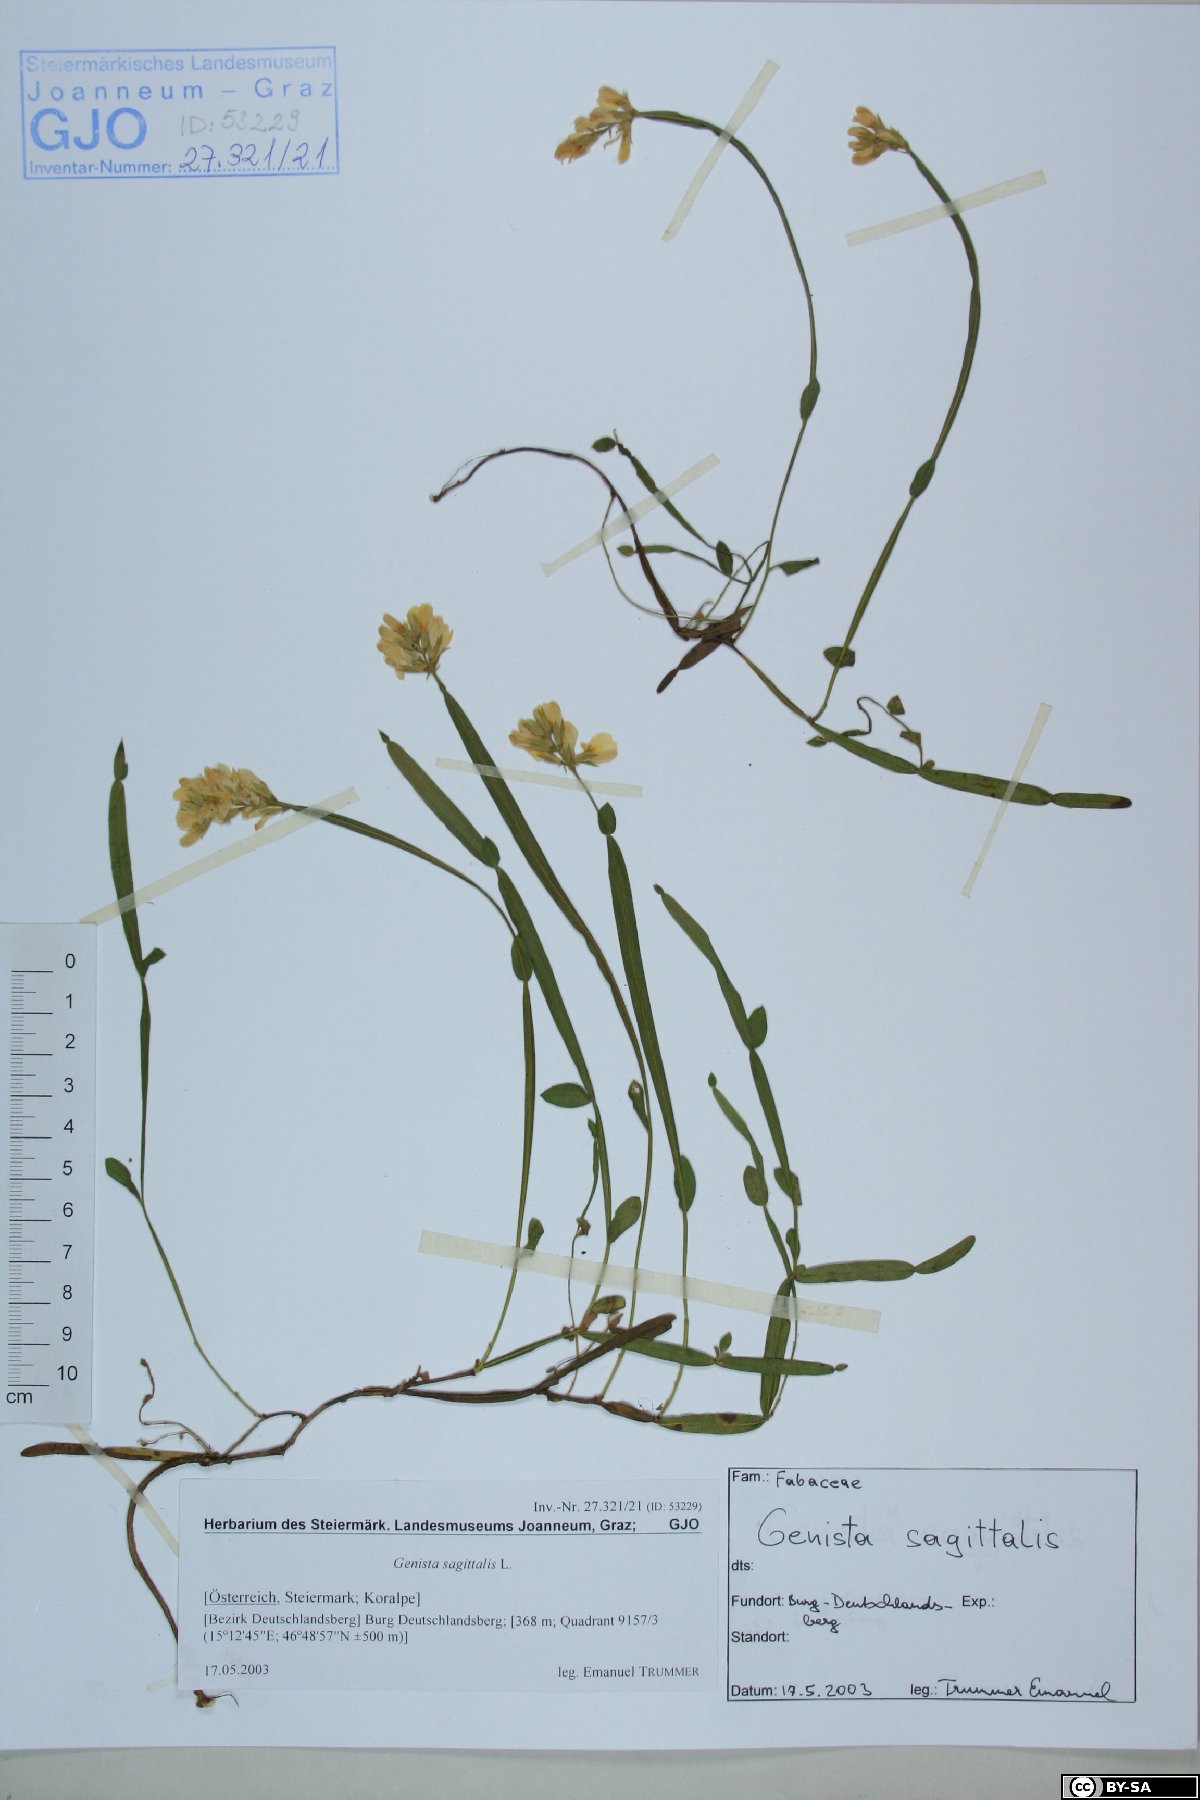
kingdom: Plantae
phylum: Tracheophyta
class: Magnoliopsida
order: Fabales
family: Fabaceae
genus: Genista
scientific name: Genista sagittalis
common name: Winged greenweed
